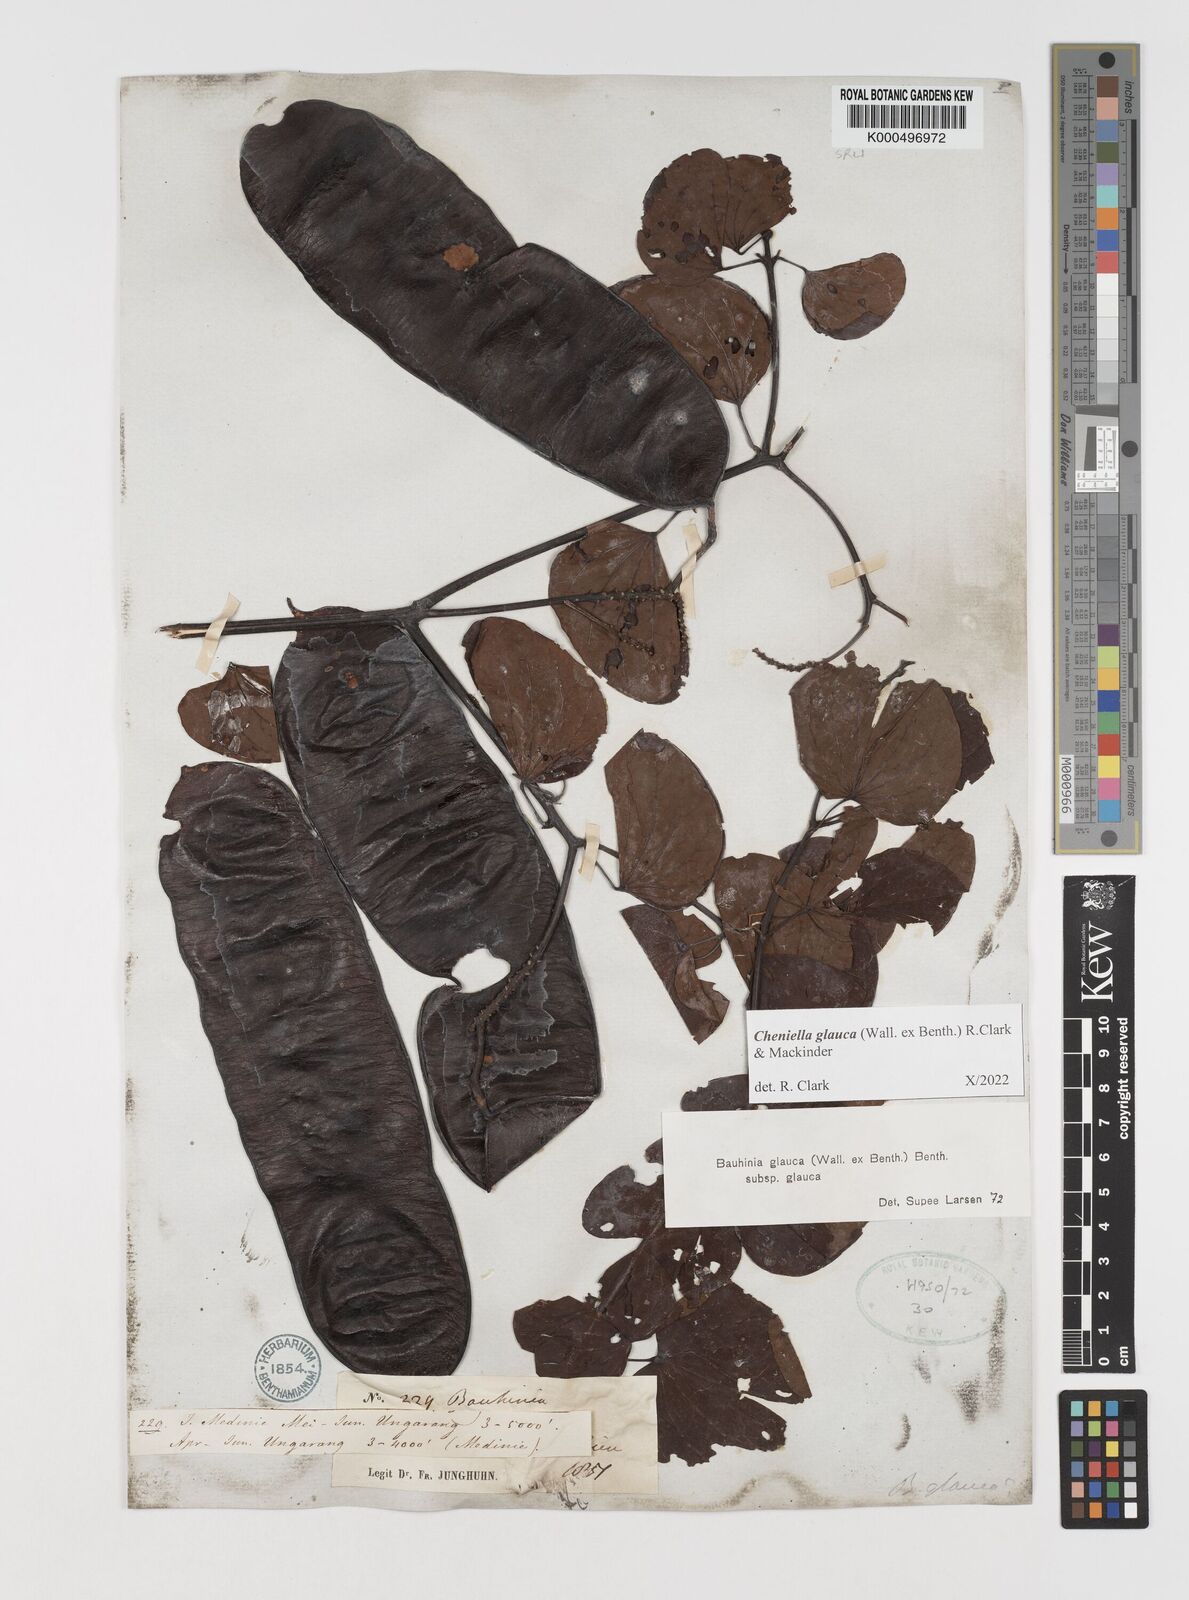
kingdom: Plantae
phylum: Tracheophyta
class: Magnoliopsida
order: Fabales
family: Fabaceae
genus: Cheniella
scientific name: Cheniella tenuiflora
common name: Bauhinia
